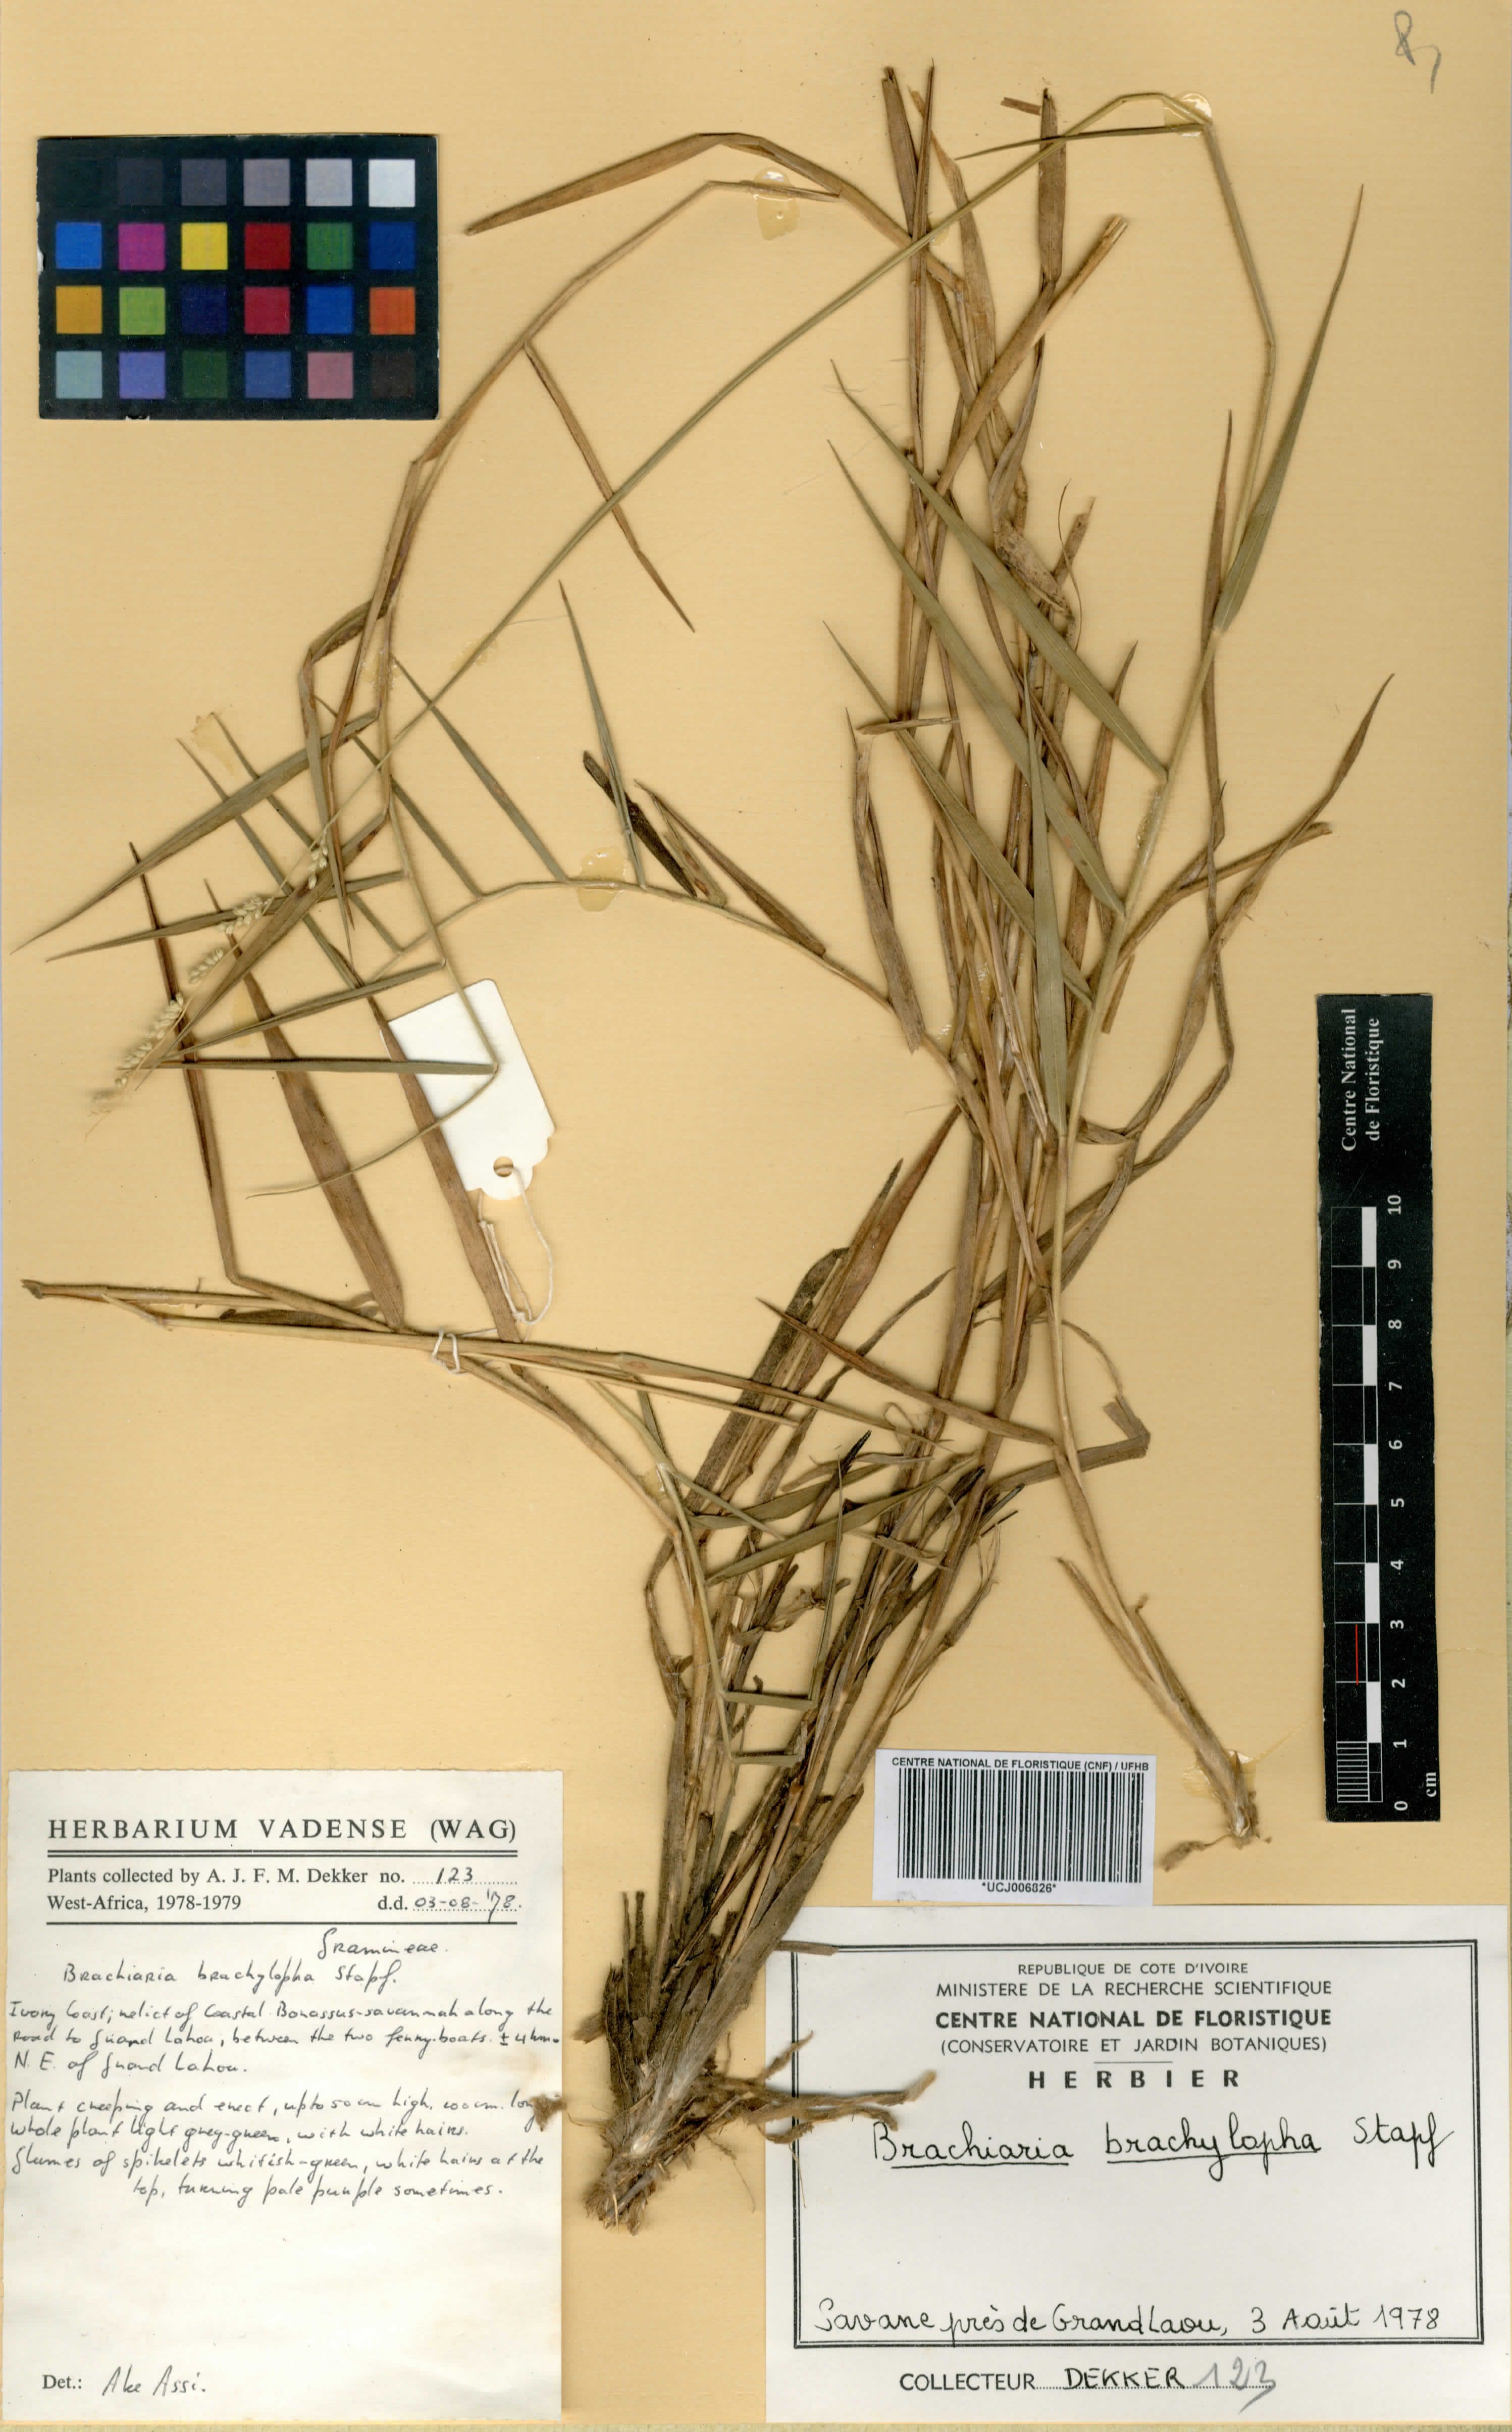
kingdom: Plantae
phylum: Tracheophyta
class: Liliopsida
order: Poales
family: Poaceae
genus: Urochloa
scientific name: Urochloa serrata
